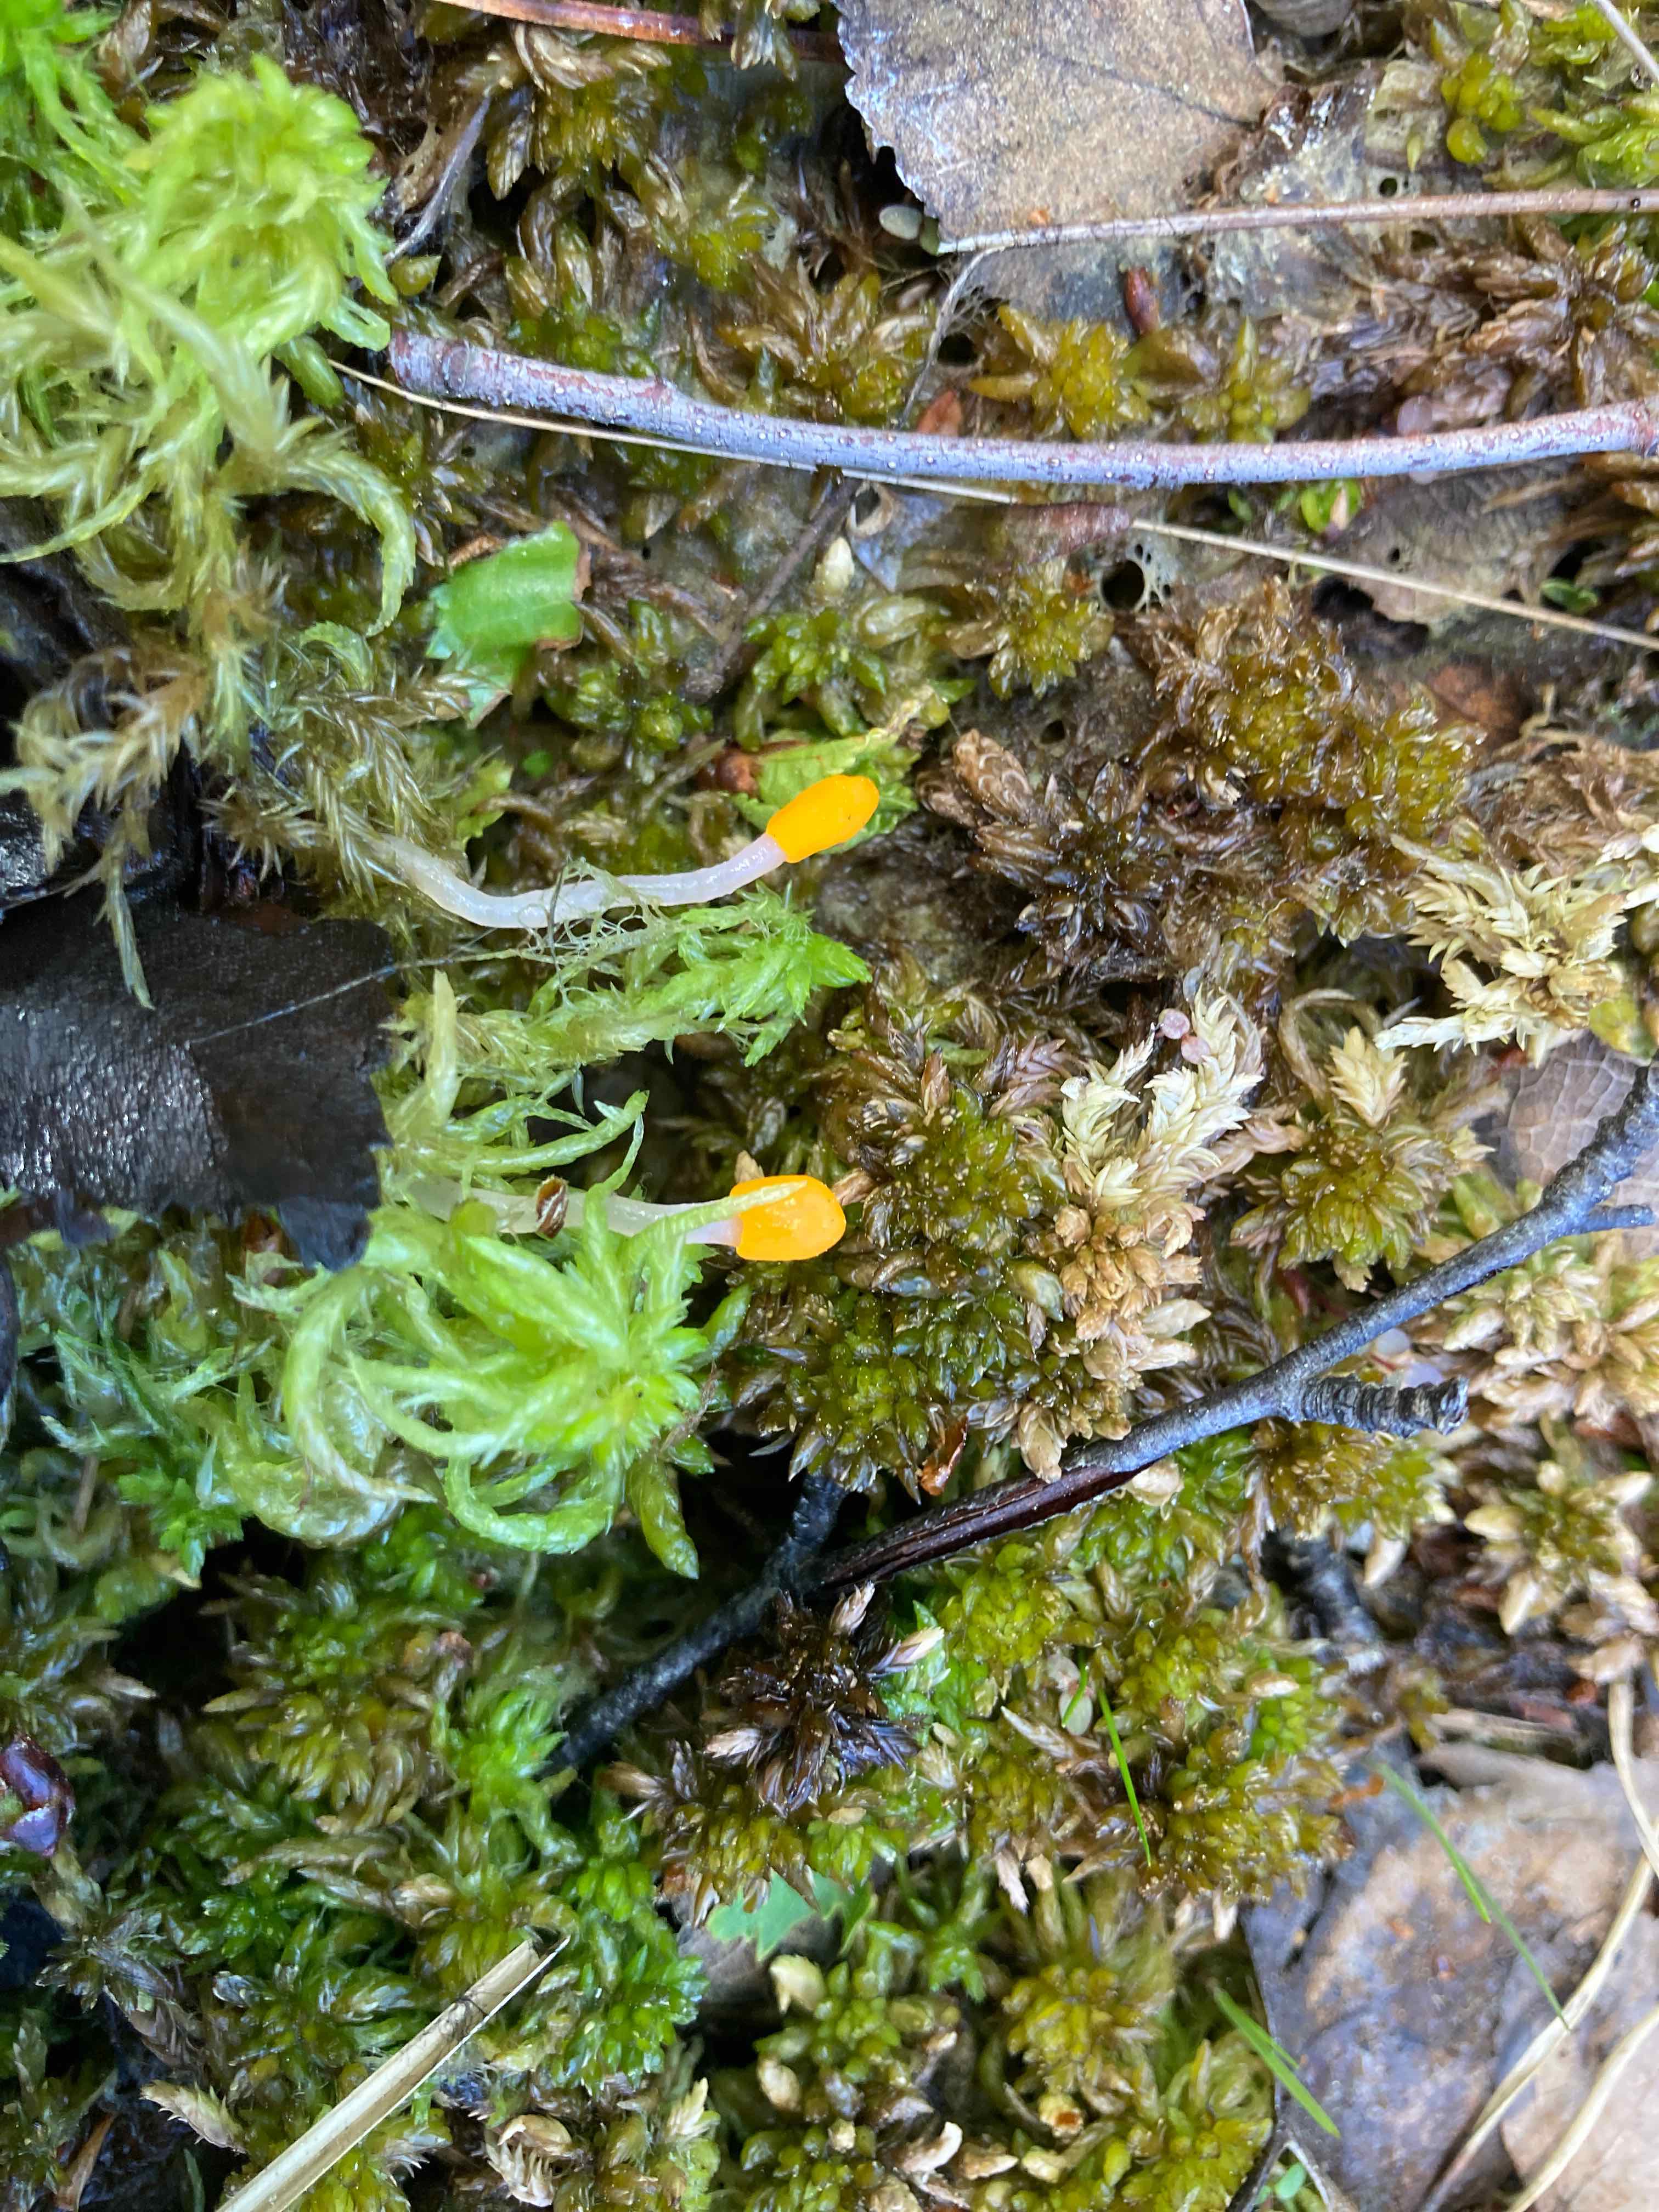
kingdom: Fungi
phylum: Ascomycota
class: Leotiomycetes
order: Helotiales
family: Cenangiaceae
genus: Mitrula
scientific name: Mitrula paludosa
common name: gul nøkketunge
